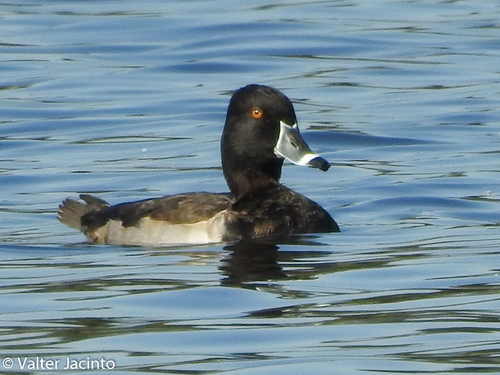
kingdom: Animalia
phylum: Chordata
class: Aves
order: Anseriformes
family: Anatidae
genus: Aythya
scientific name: Aythya collaris
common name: Ring-necked duck
